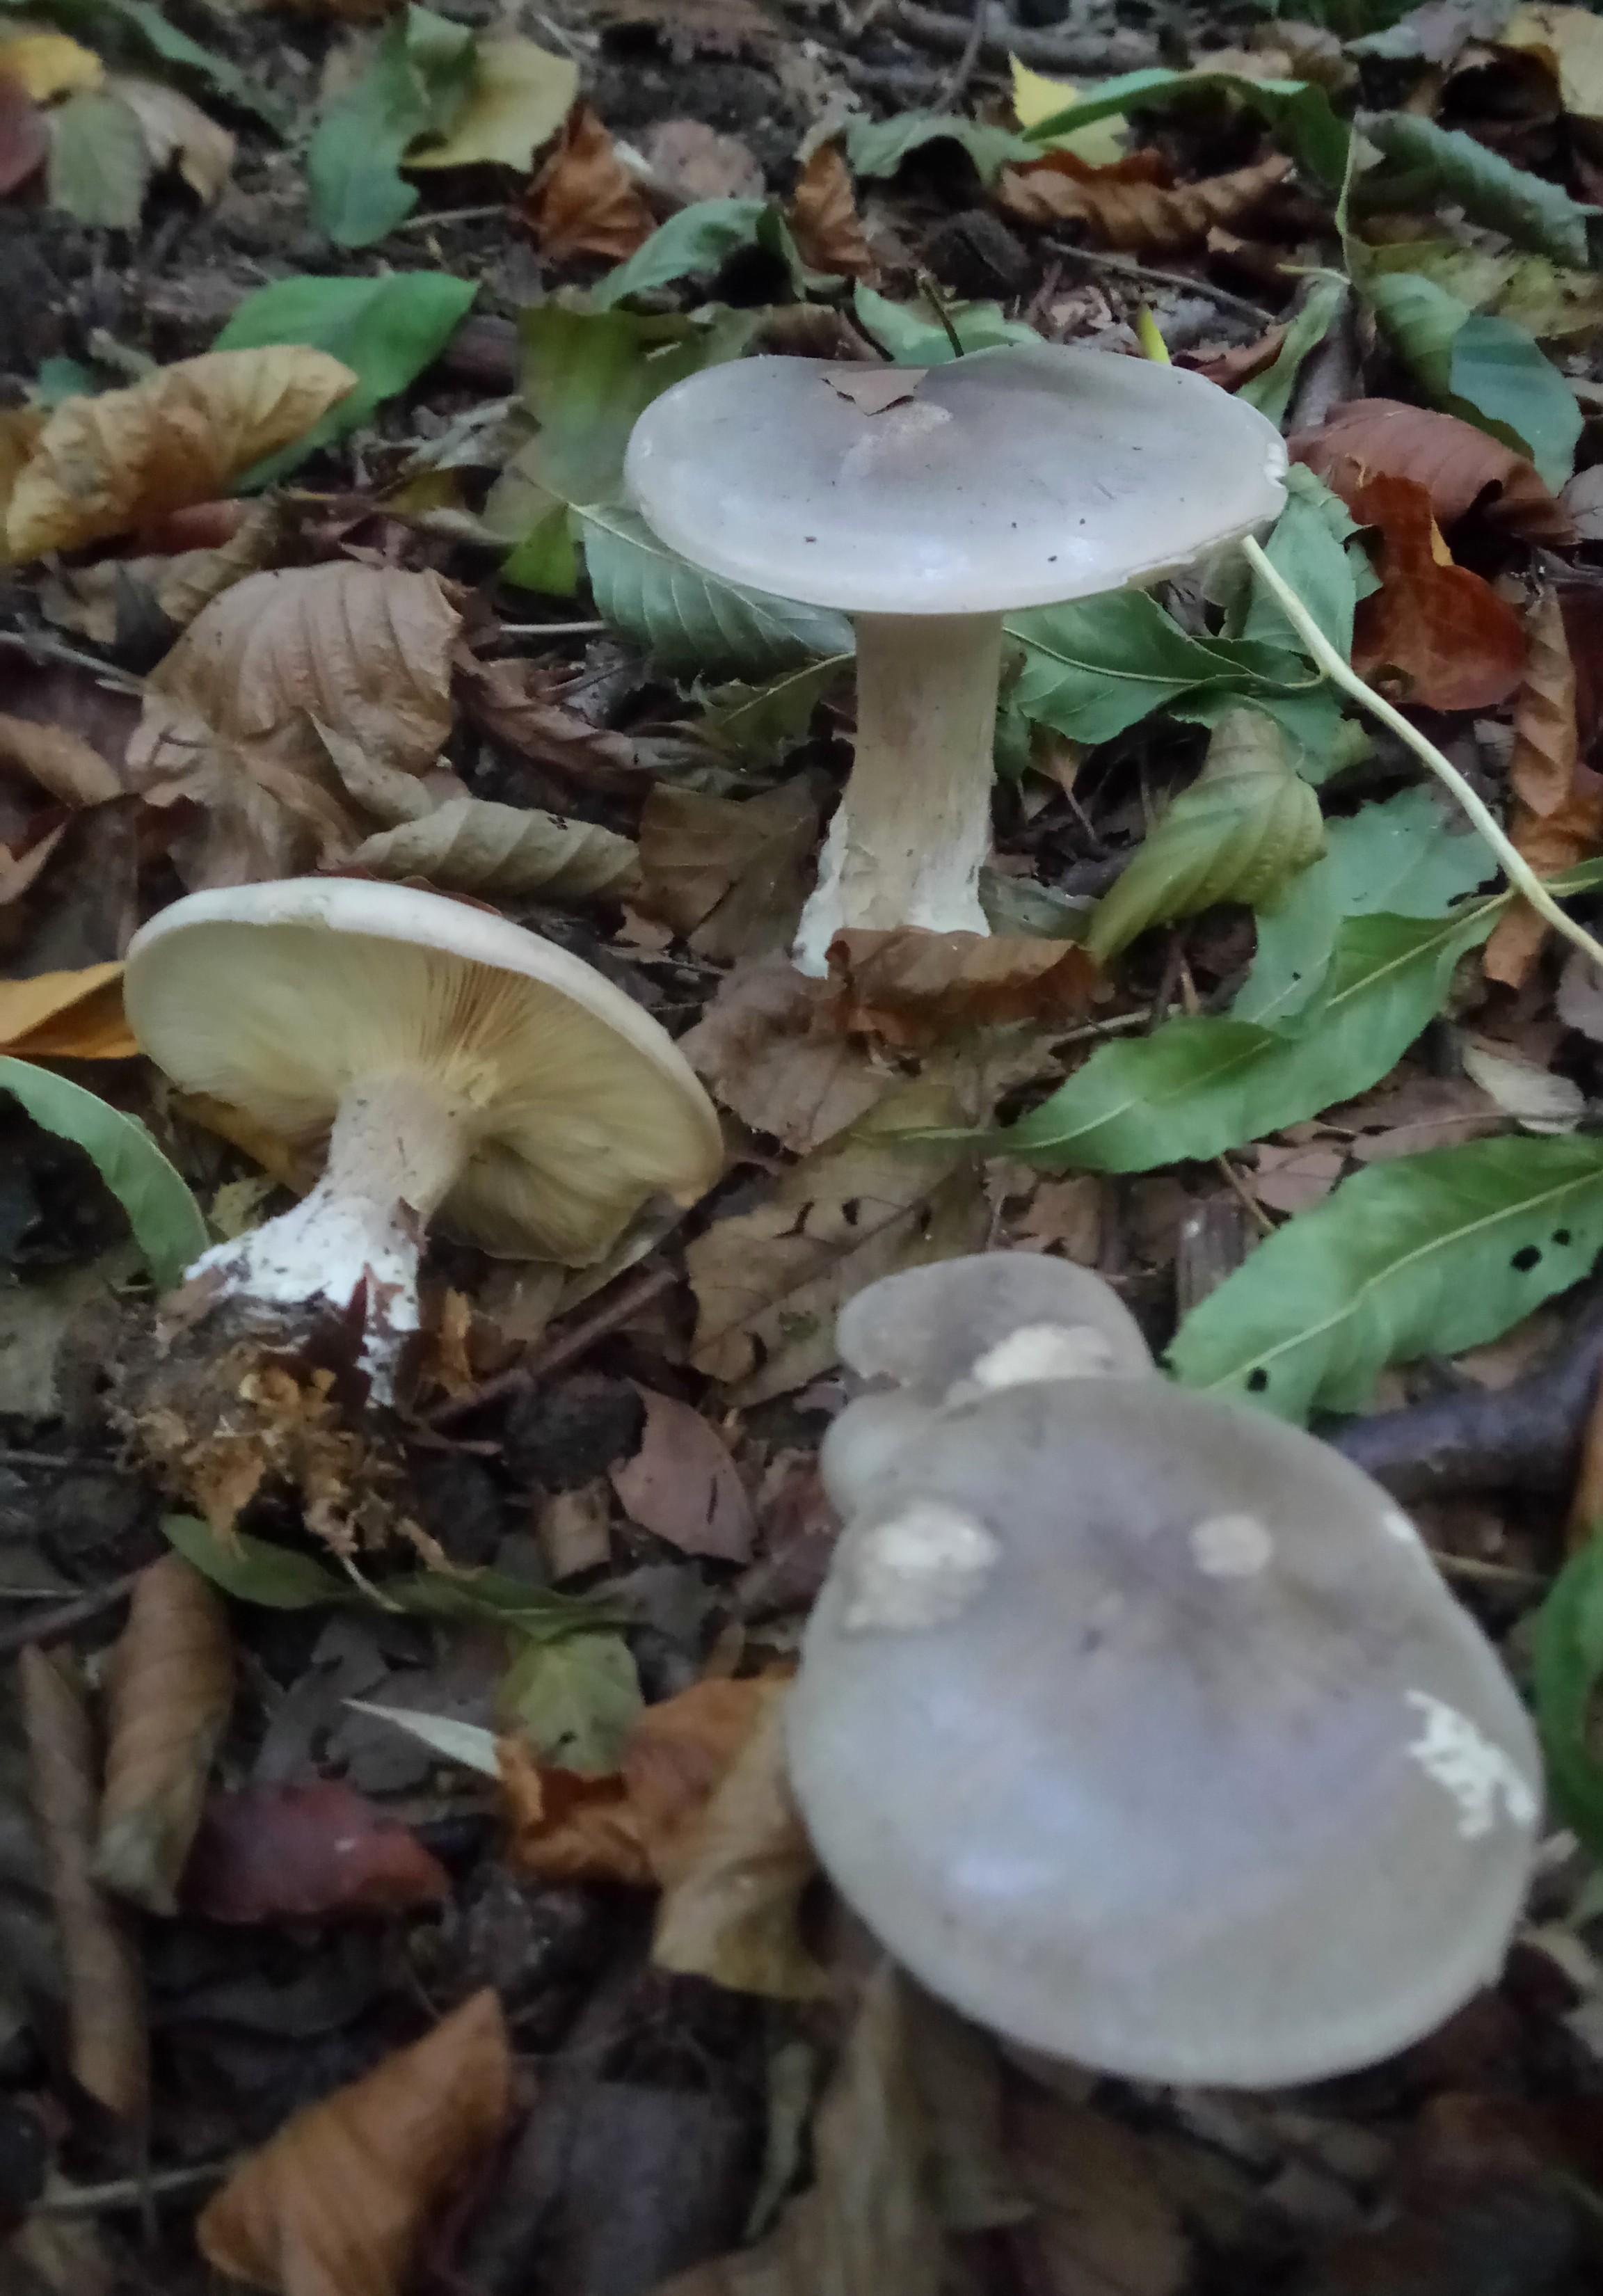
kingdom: Fungi
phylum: Basidiomycota
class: Agaricomycetes
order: Agaricales
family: Tricholomataceae
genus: Clitocybe
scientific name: Clitocybe nebularis
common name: tåge-tragthat
